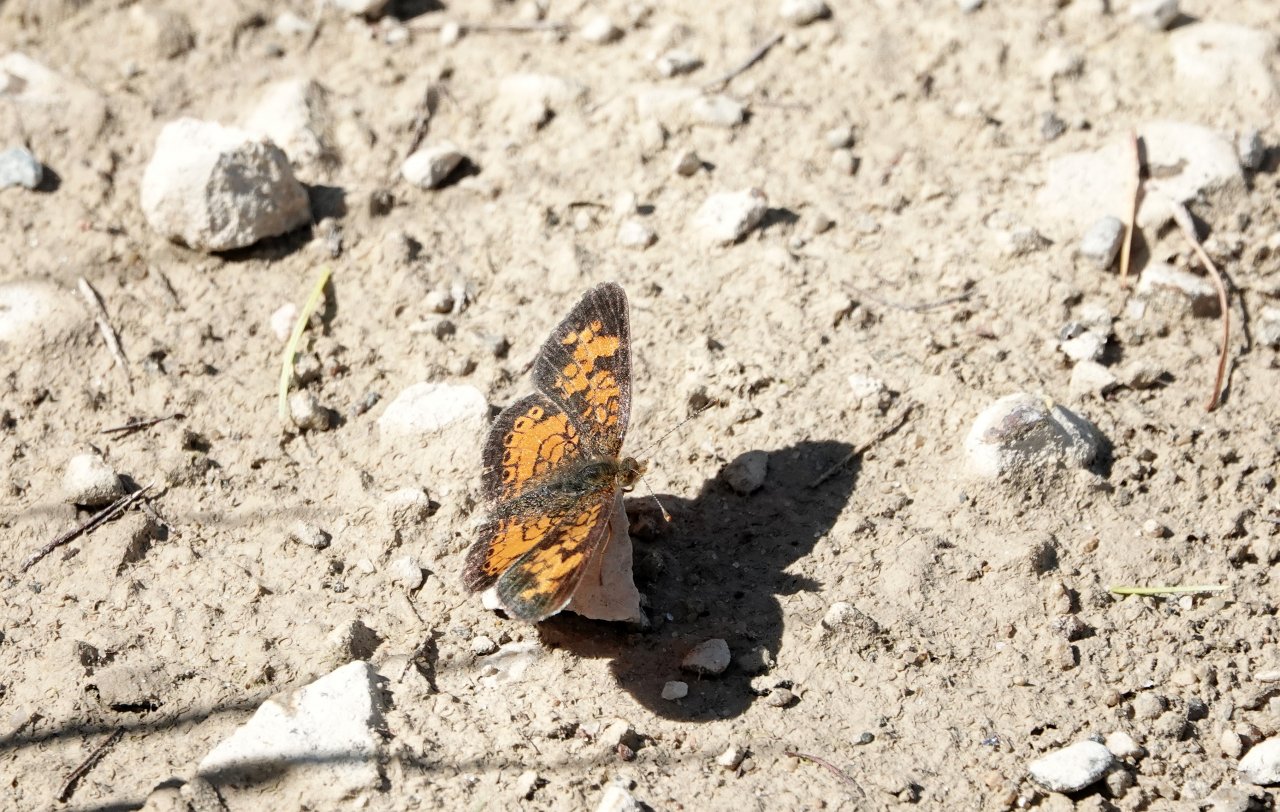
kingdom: Animalia
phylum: Arthropoda
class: Insecta
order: Lepidoptera
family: Nymphalidae
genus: Phyciodes
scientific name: Phyciodes tharos
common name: Northern Crescent
